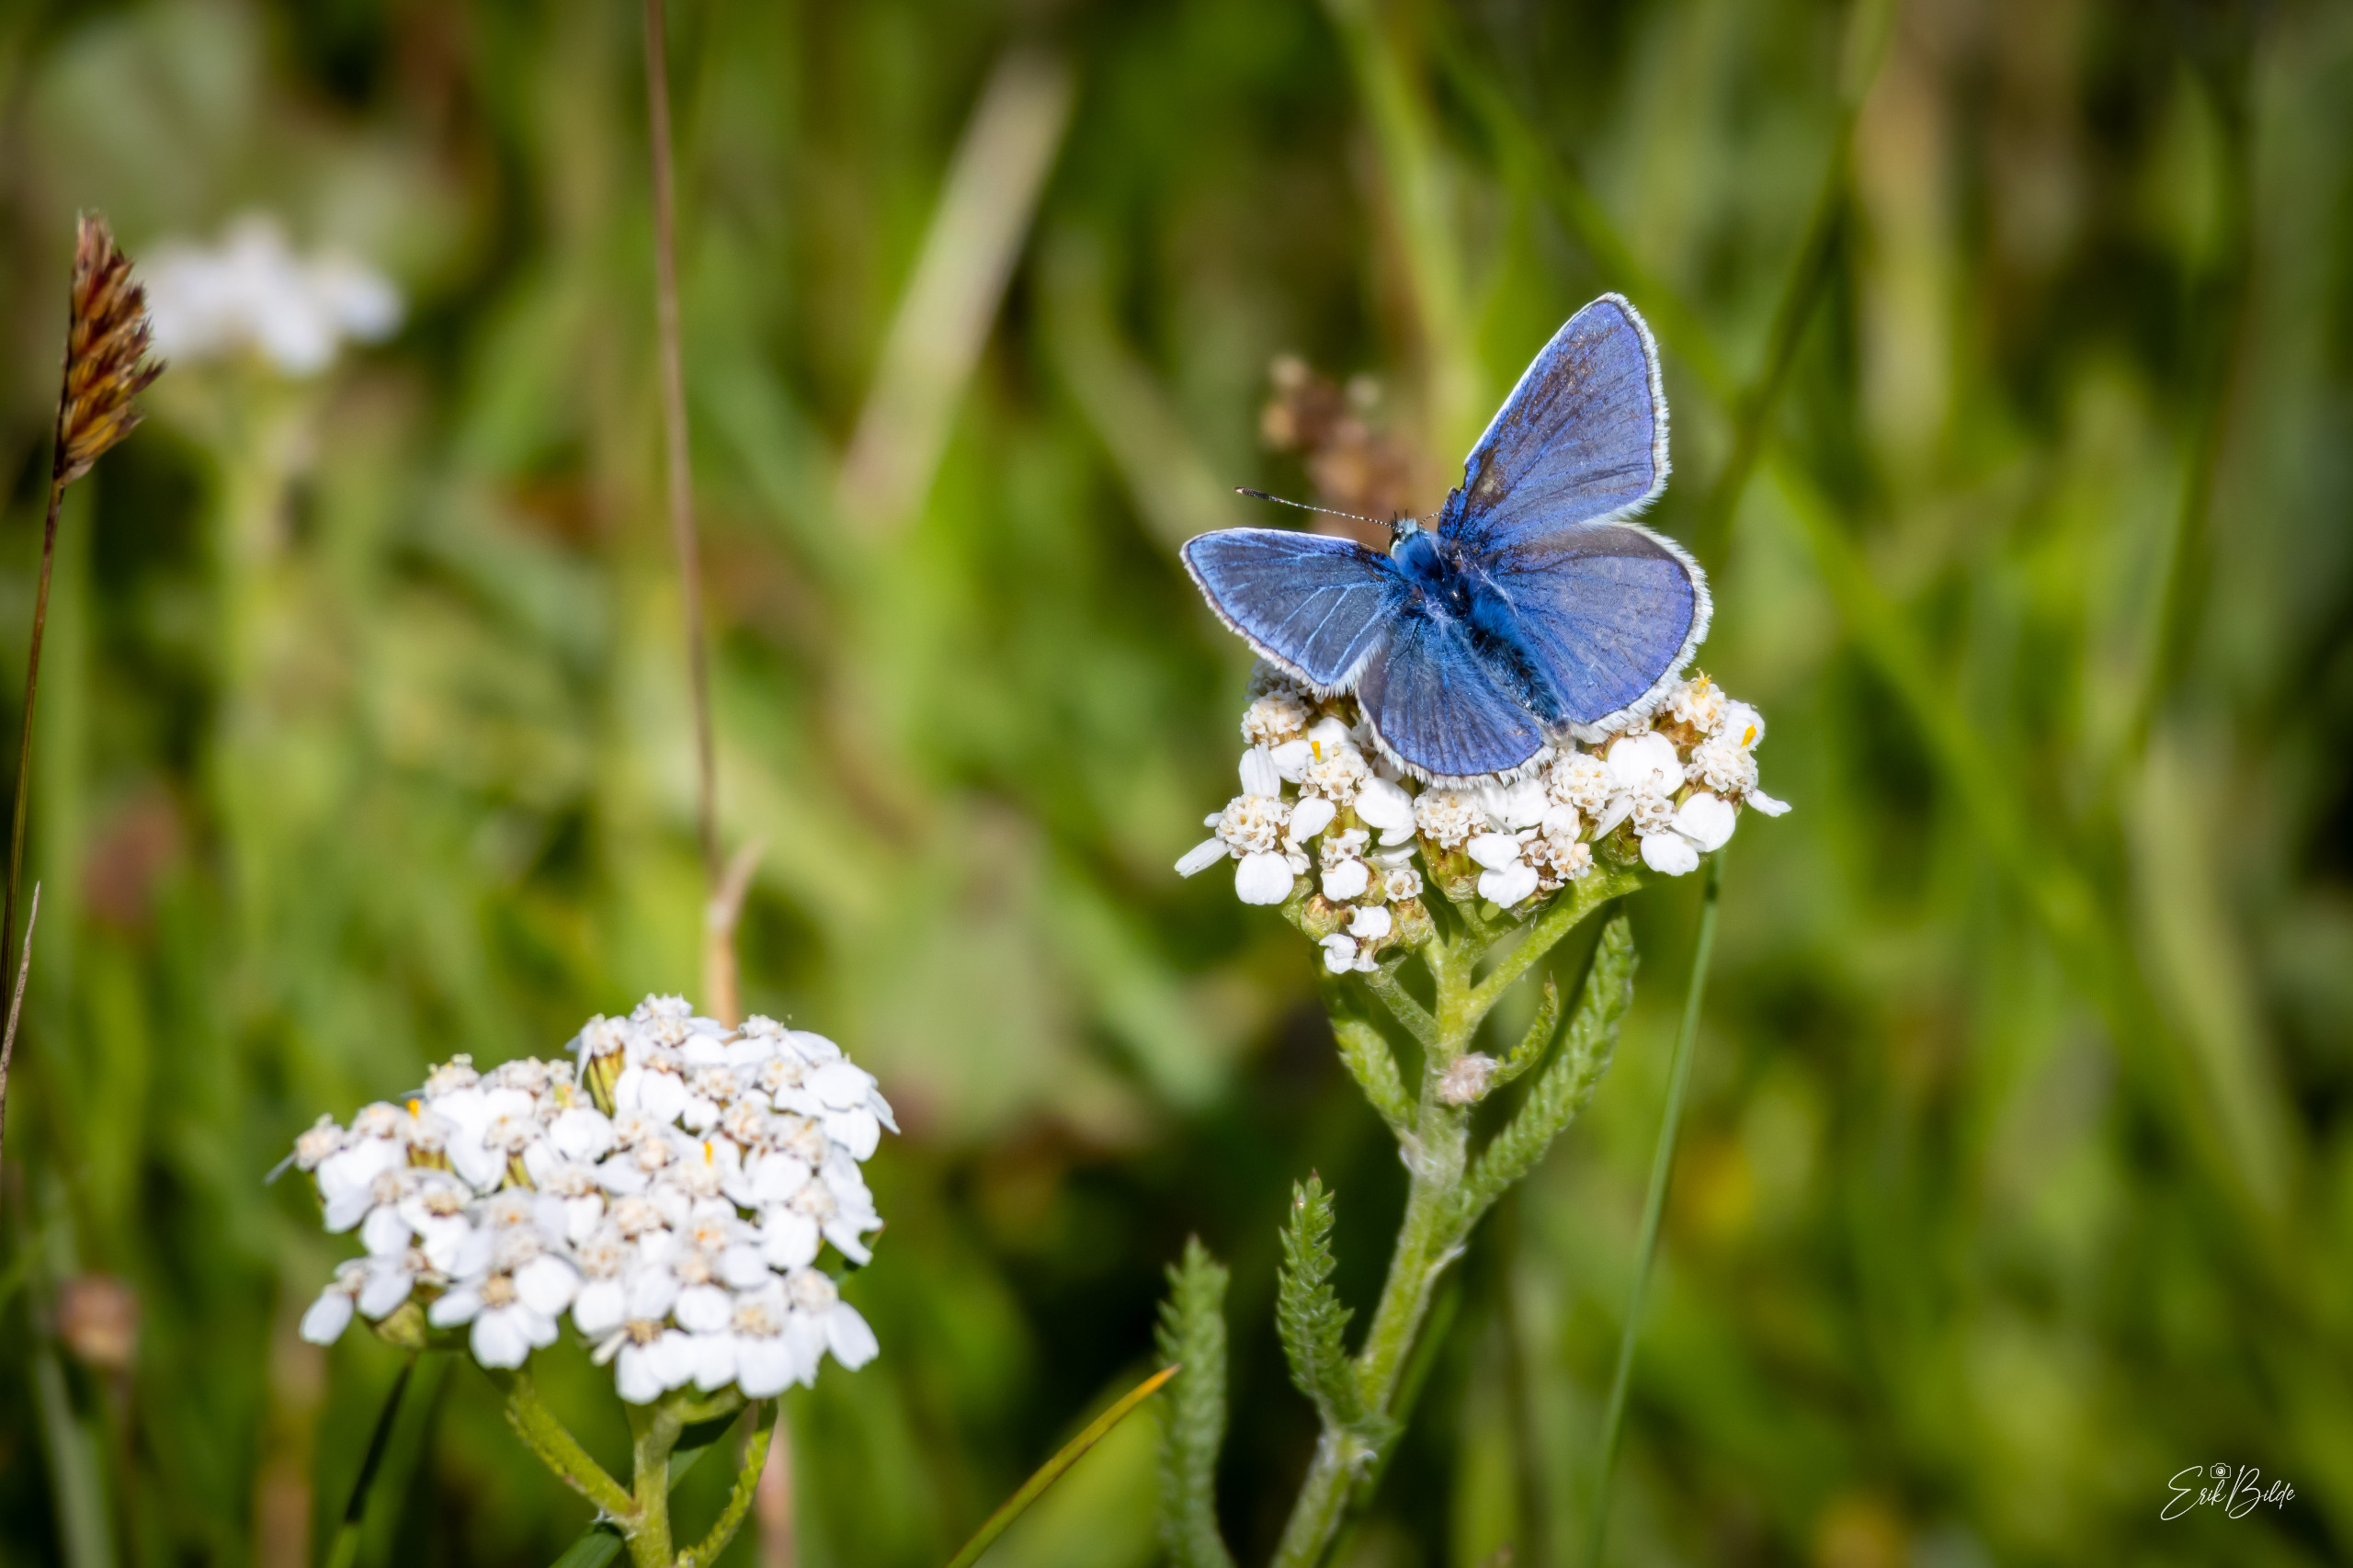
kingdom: Animalia
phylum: Arthropoda
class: Insecta
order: Lepidoptera
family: Lycaenidae
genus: Polyommatus
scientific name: Polyommatus icarus
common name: Almindelig blåfugl
